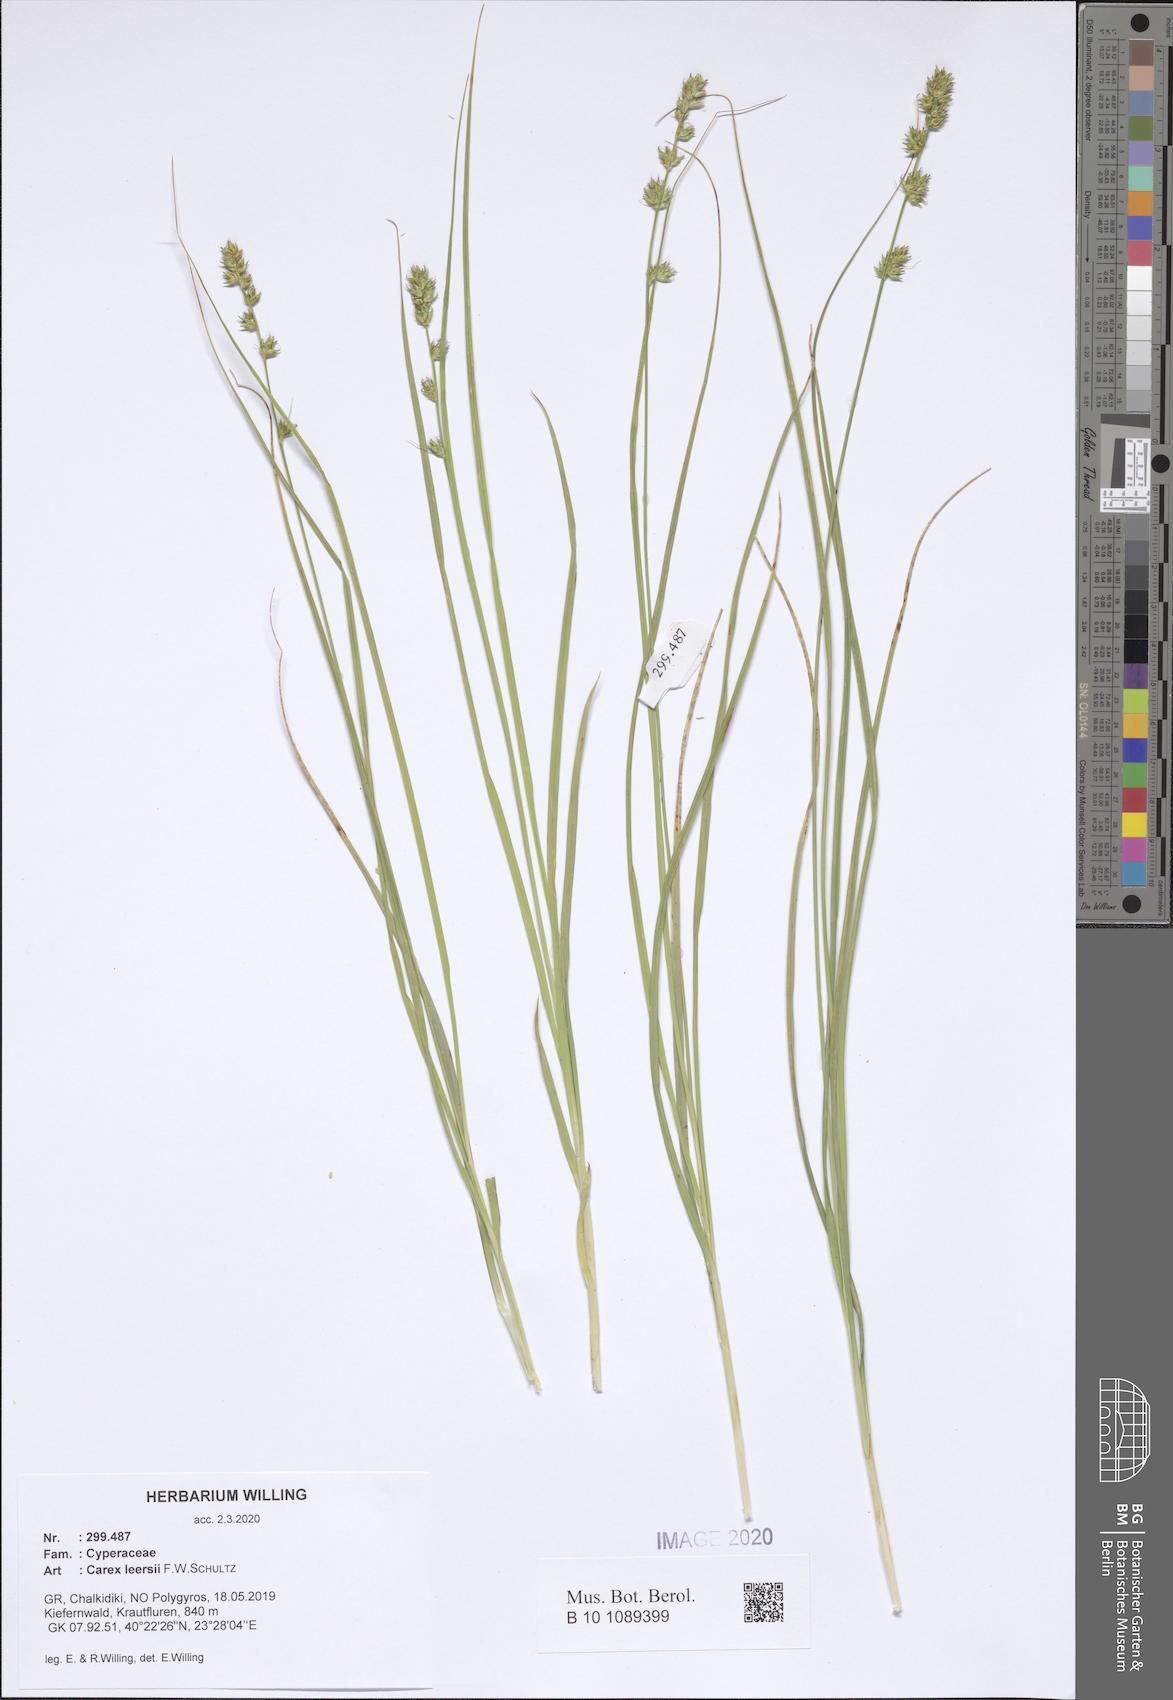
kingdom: Plantae
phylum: Tracheophyta
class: Liliopsida
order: Poales
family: Cyperaceae
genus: Carex
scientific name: Carex leersii
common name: Leers' sedge
